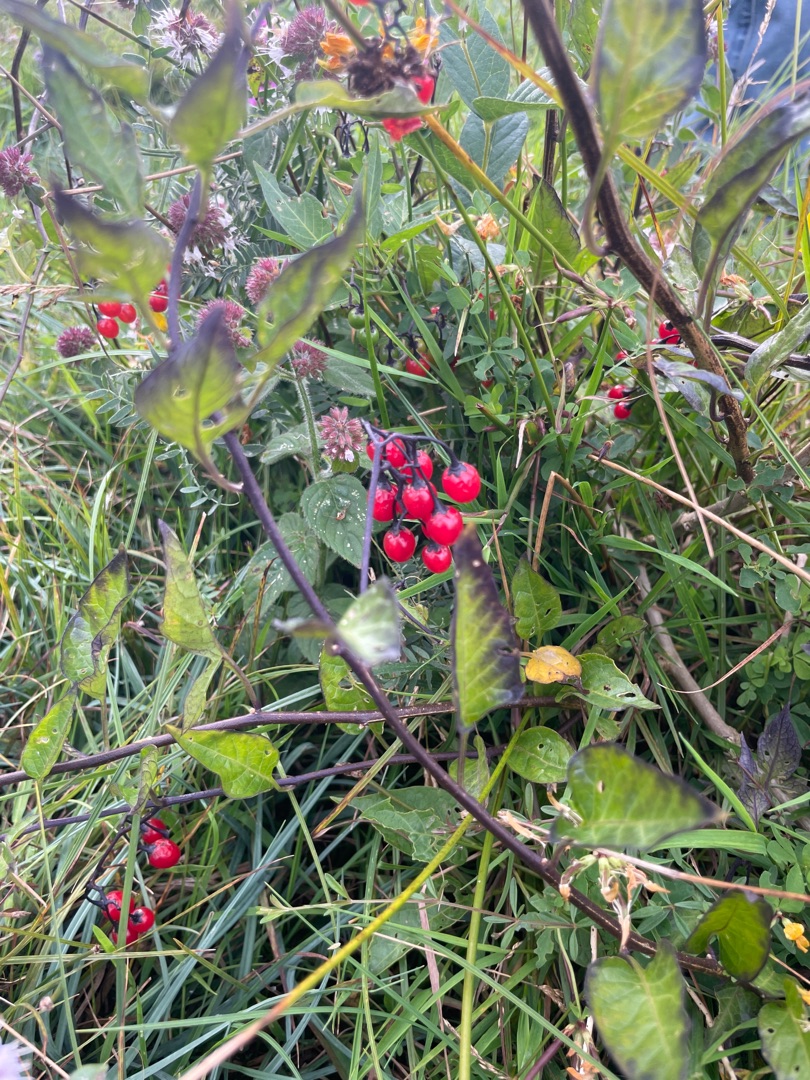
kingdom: Plantae
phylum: Tracheophyta
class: Magnoliopsida
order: Solanales
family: Solanaceae
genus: Solanum
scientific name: Solanum dulcamara
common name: Bittersød natskygge
